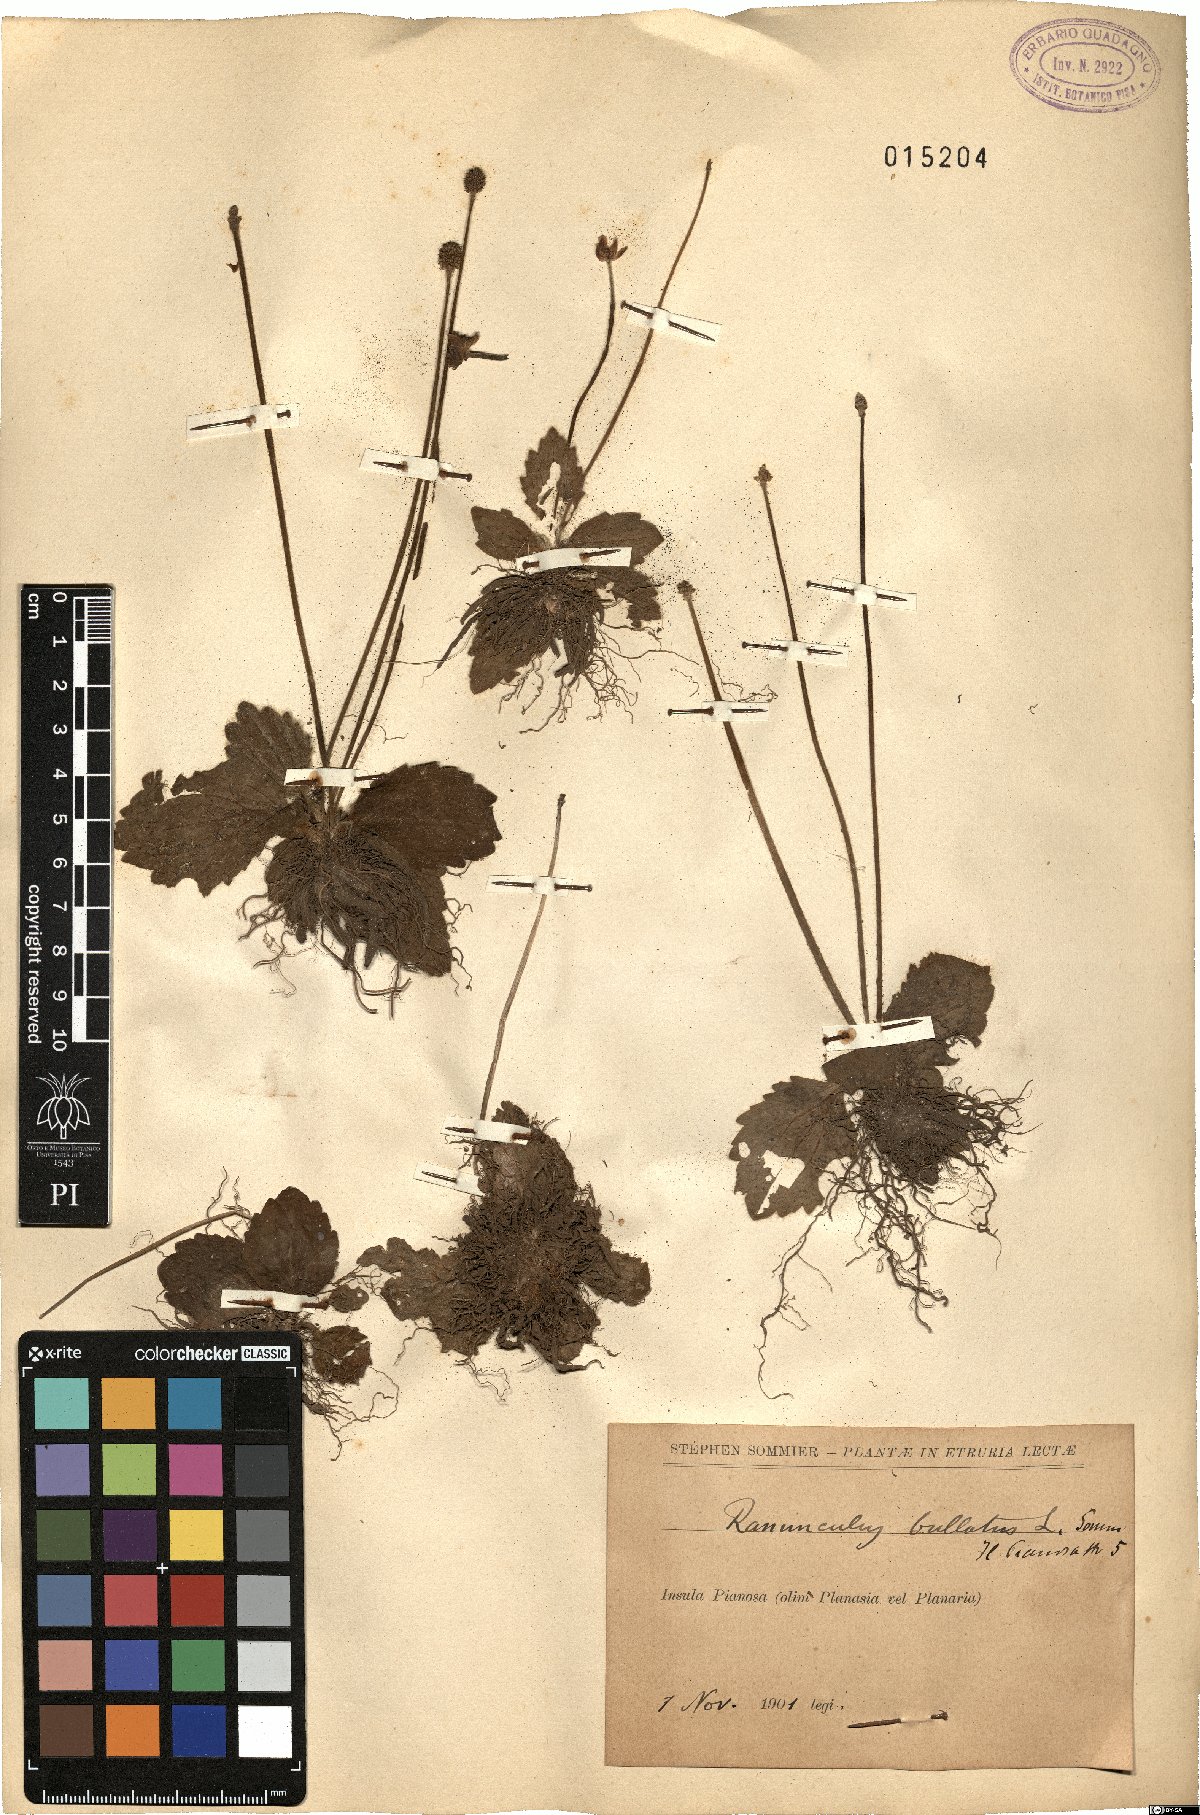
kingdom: Plantae
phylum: Tracheophyta
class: Magnoliopsida
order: Ranunculales
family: Ranunculaceae
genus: Ranunculus
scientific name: Ranunculus bullatus
